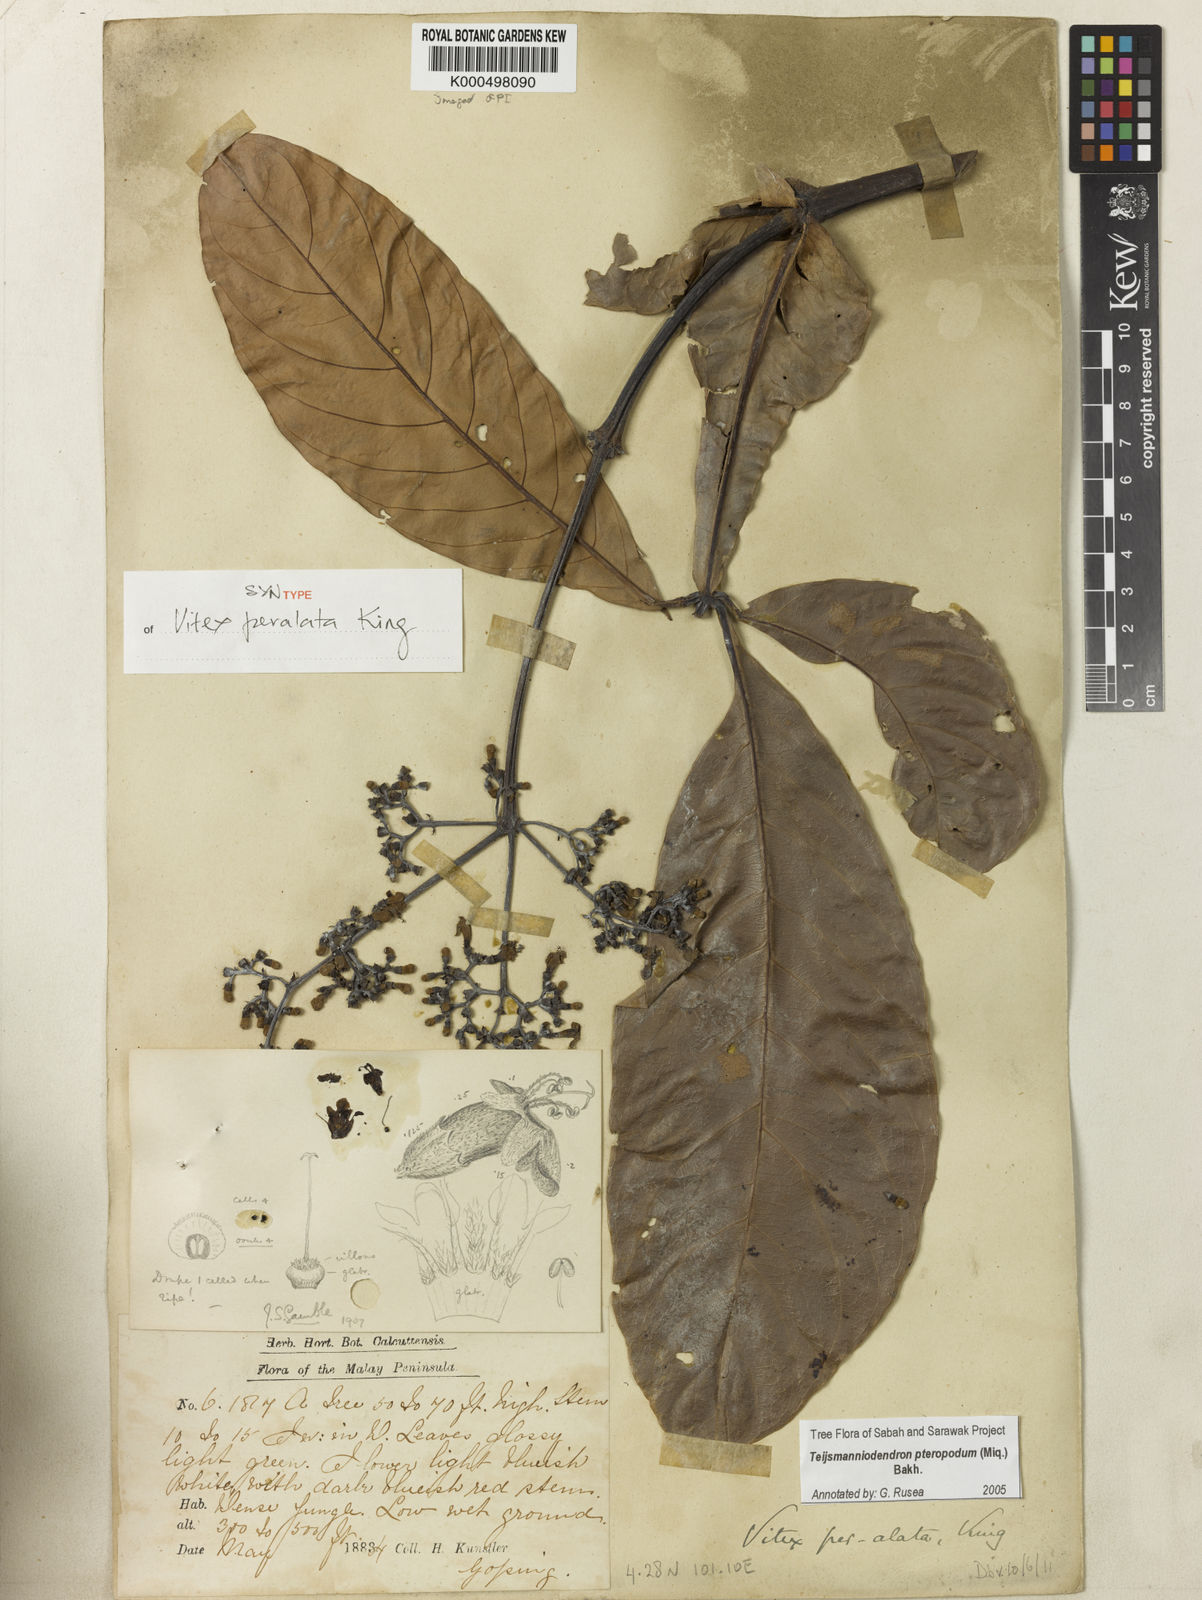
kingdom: Plantae
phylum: Tracheophyta
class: Magnoliopsida
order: Lamiales
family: Lamiaceae
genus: Teijsmanniodendron
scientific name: Teijsmanniodendron pteropodum
